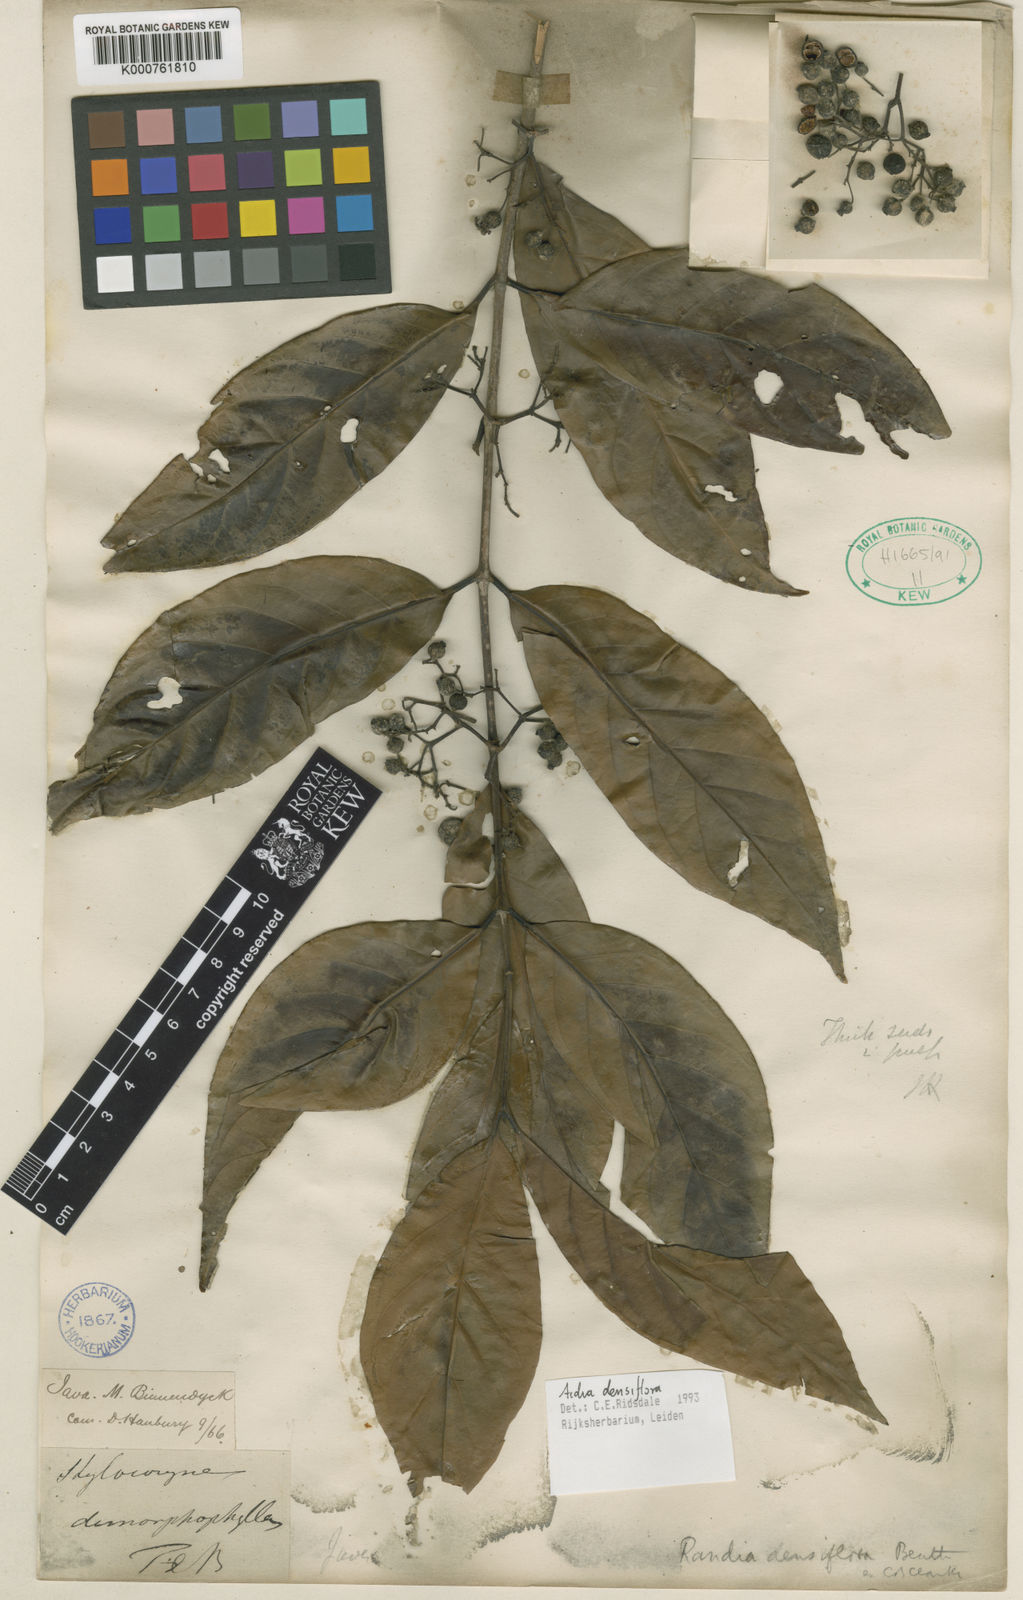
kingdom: Plantae
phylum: Tracheophyta
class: Magnoliopsida
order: Gentianales
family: Rubiaceae
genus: Aidia
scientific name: Aidia densiflora
